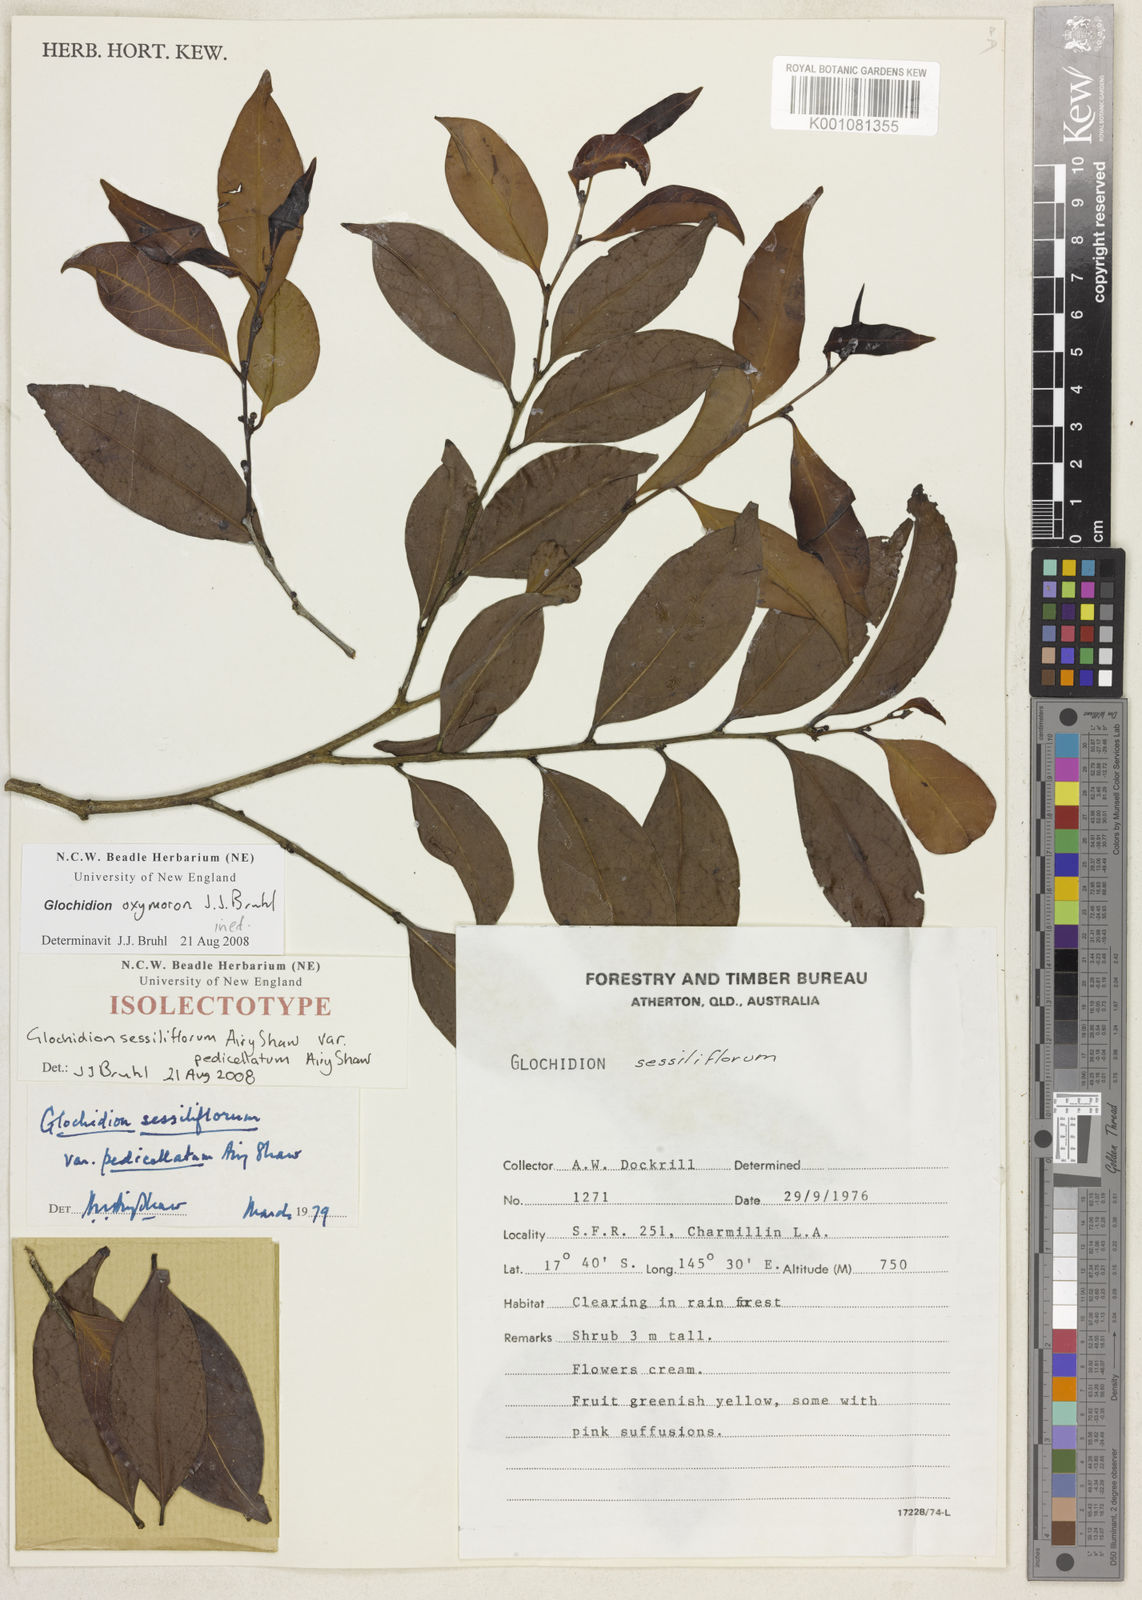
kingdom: Plantae
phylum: Tracheophyta
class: Magnoliopsida
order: Malpighiales
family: Phyllanthaceae
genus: Glochidion
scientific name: Glochidion
